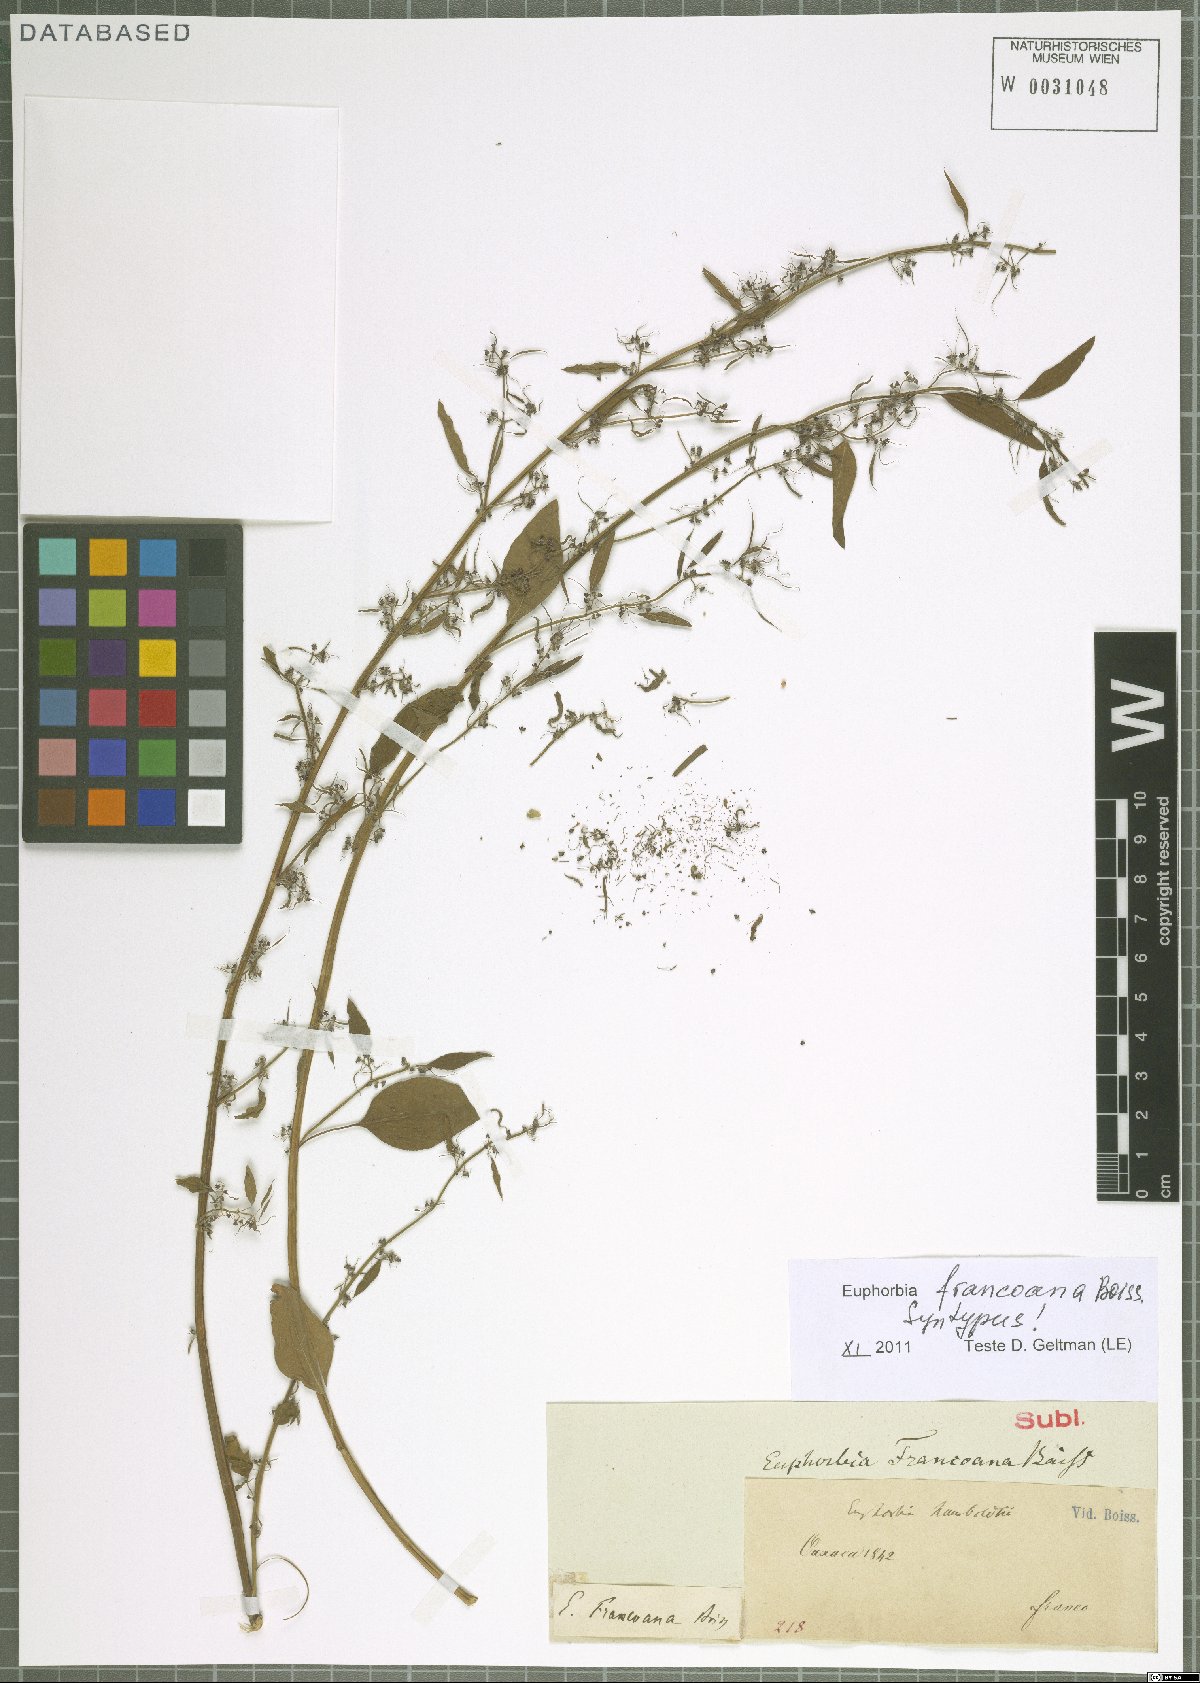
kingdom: Plantae
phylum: Tracheophyta
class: Magnoliopsida
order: Malpighiales
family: Euphorbiaceae
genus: Euphorbia
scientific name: Euphorbia francoana
